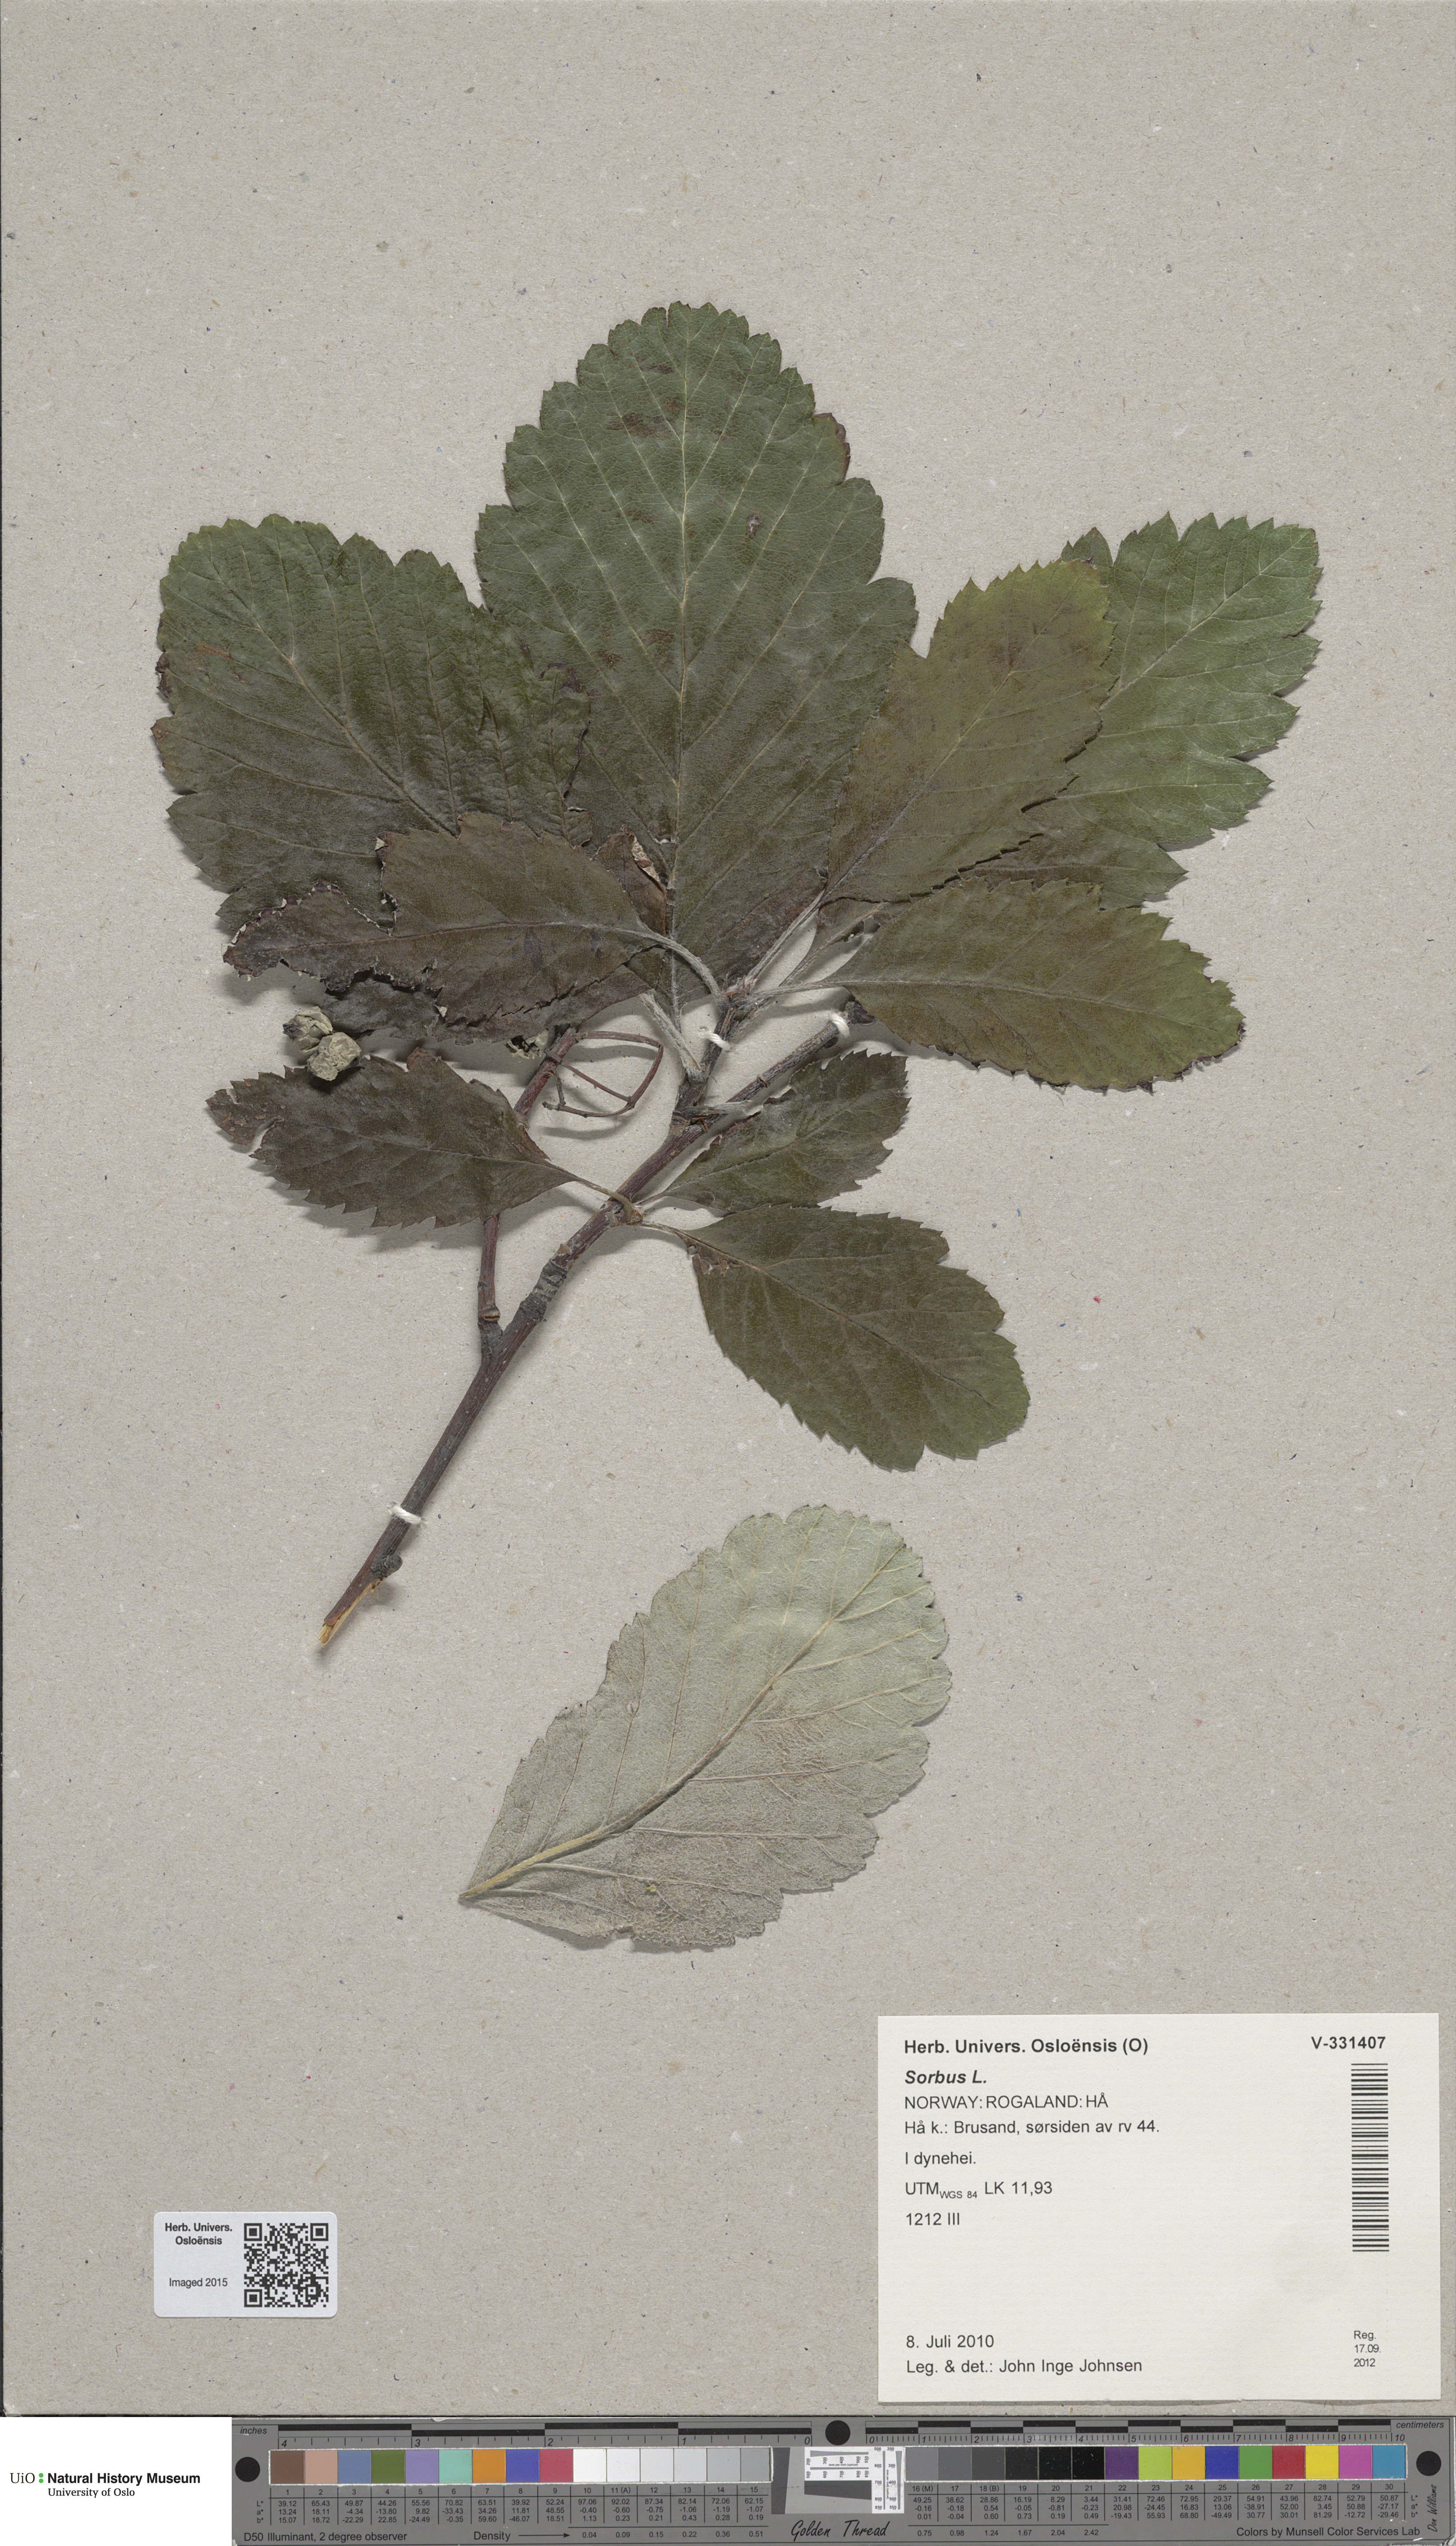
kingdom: Plantae
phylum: Tracheophyta
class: Magnoliopsida
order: Rosales
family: Rosaceae
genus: Sorbus
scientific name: Sorbus
